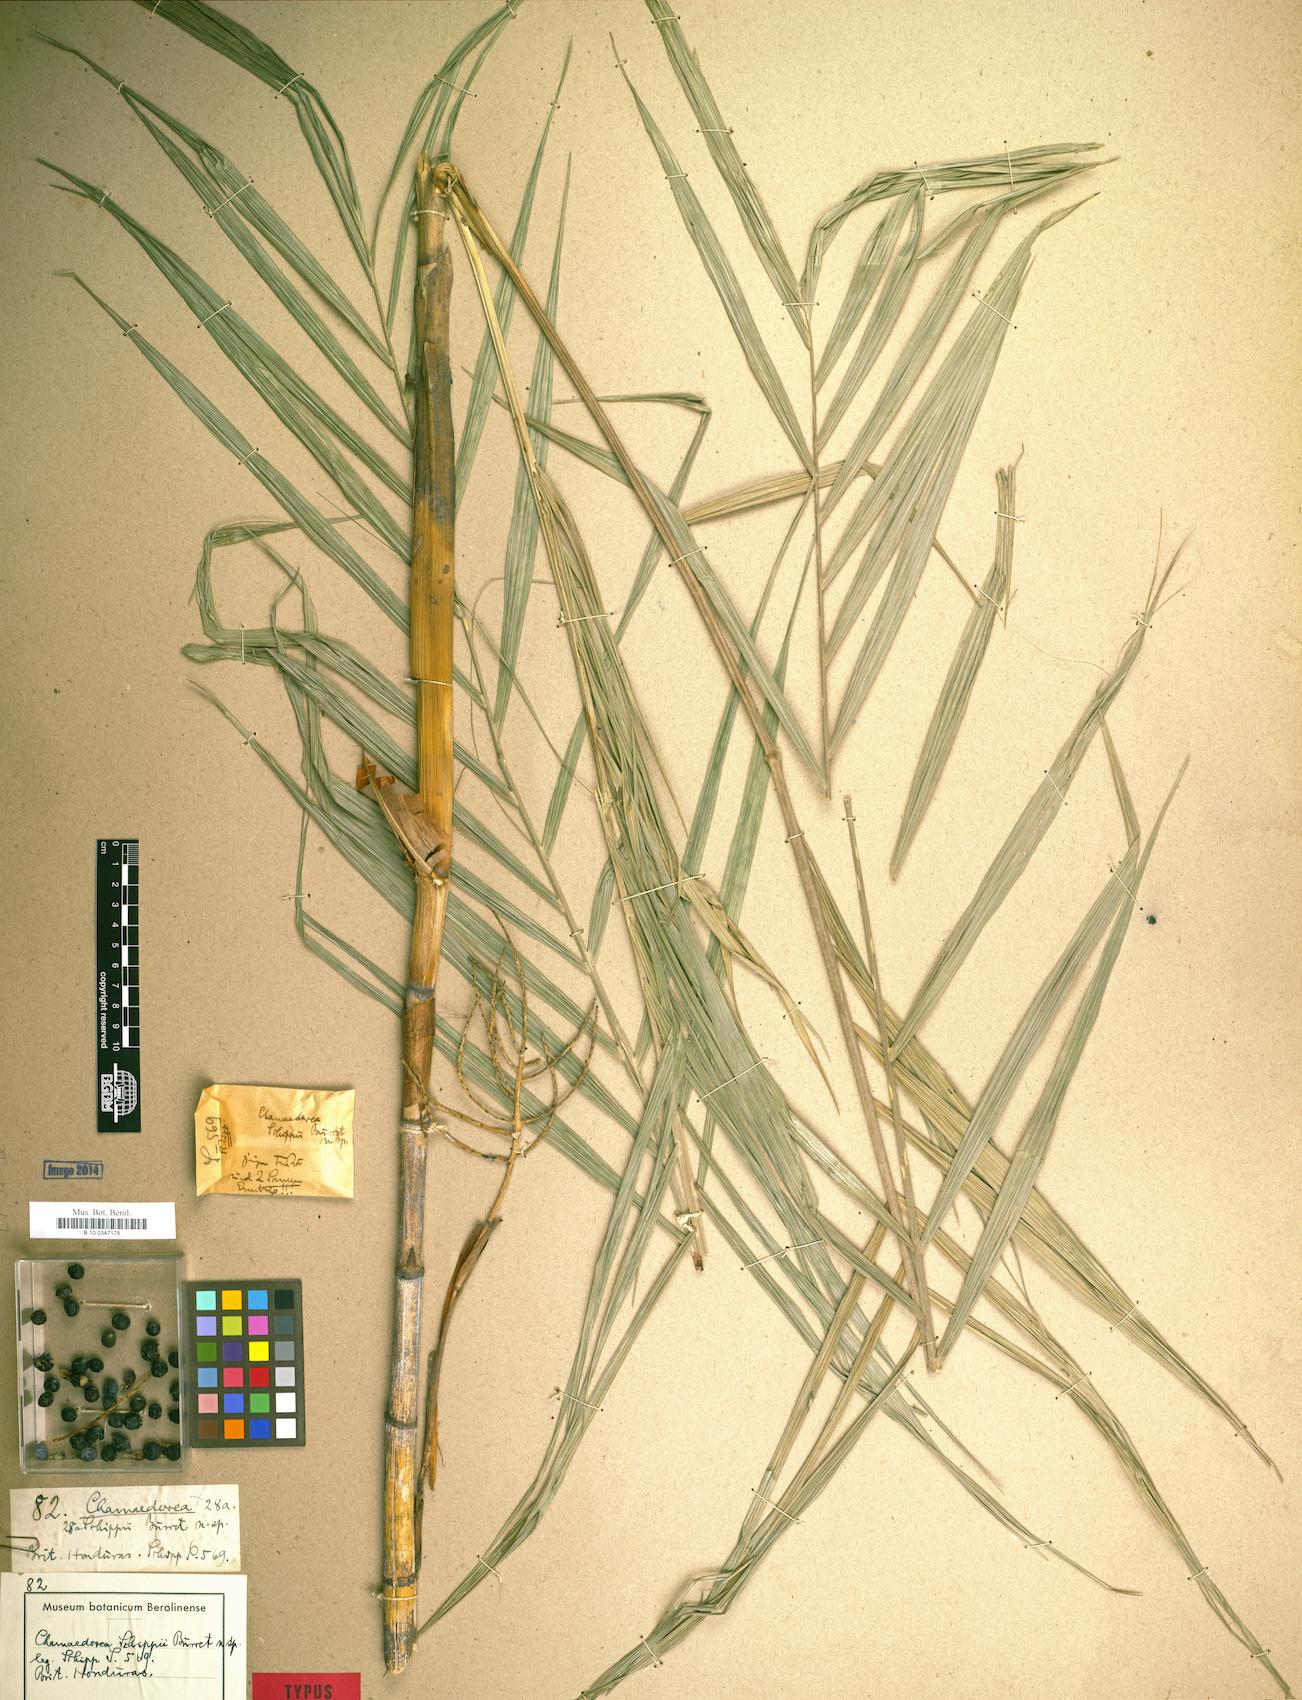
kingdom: Plantae
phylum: Tracheophyta
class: Liliopsida
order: Arecales
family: Arecaceae
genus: Chamaedorea
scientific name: Chamaedorea schippii
